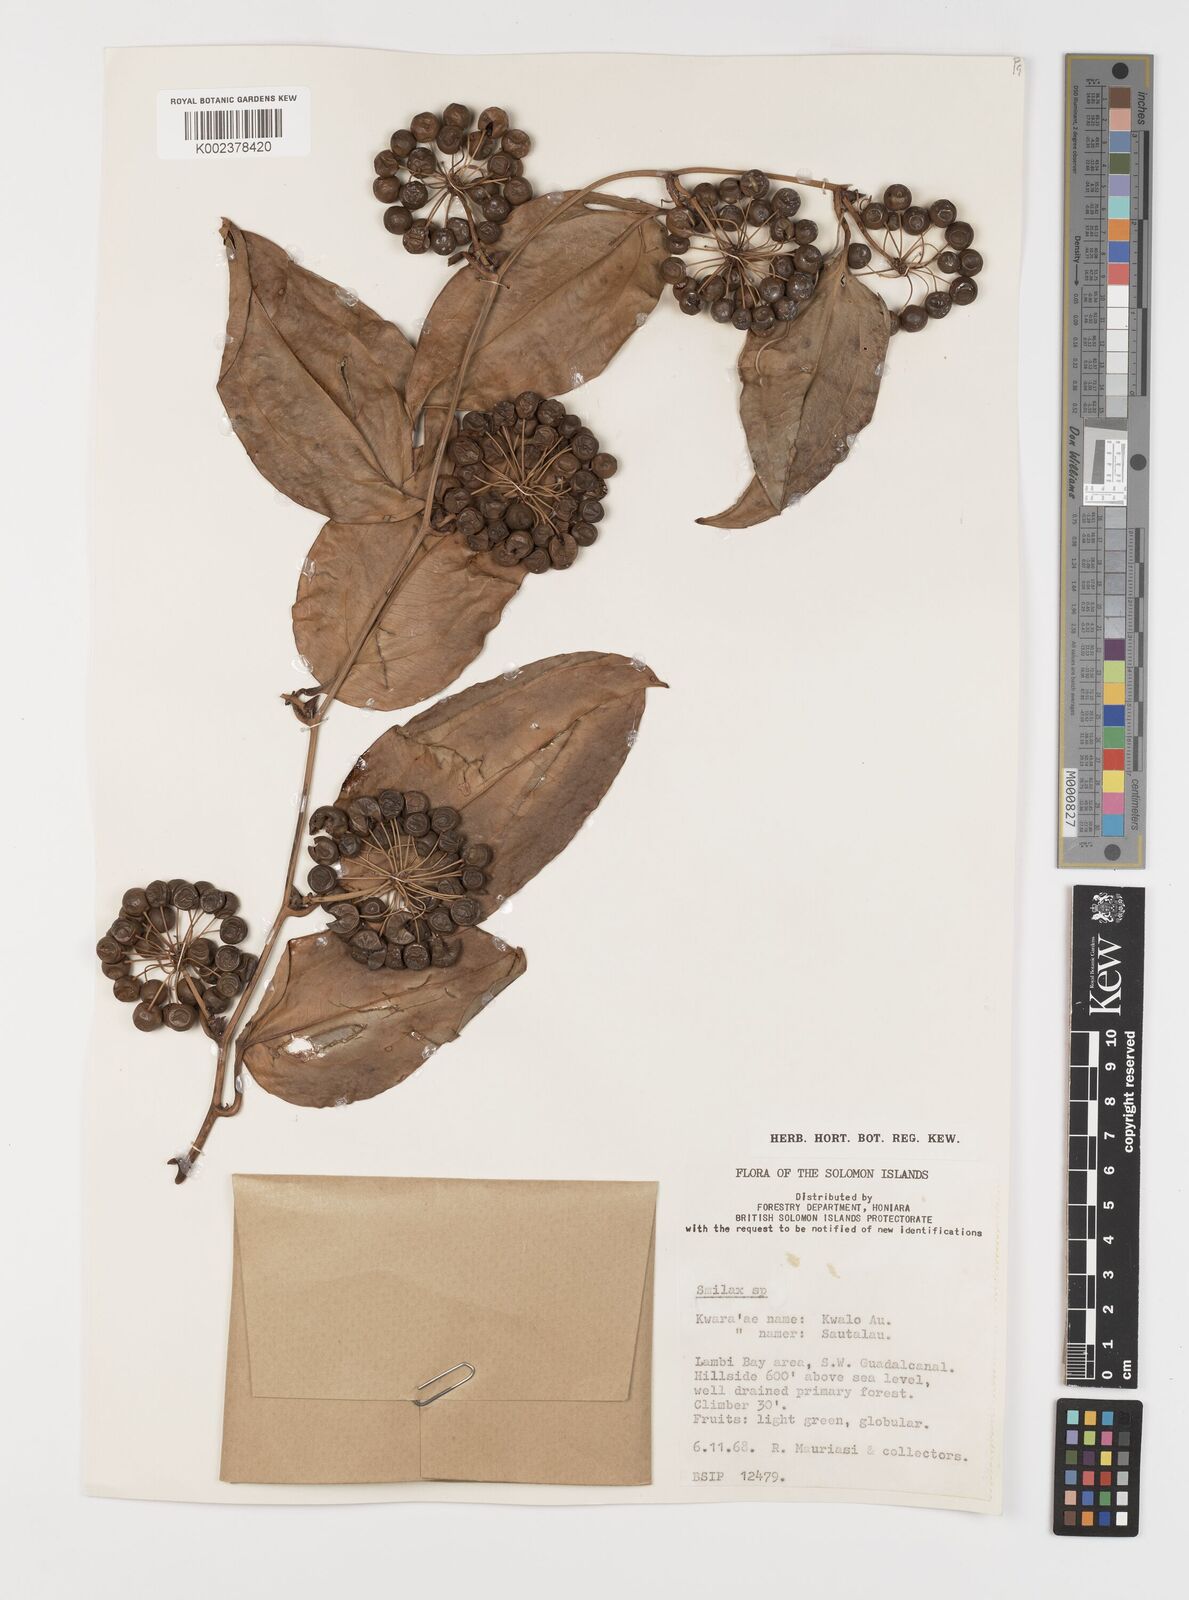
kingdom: Plantae
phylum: Tracheophyta
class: Liliopsida
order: Liliales
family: Smilacaceae
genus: Smilax
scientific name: Smilax
